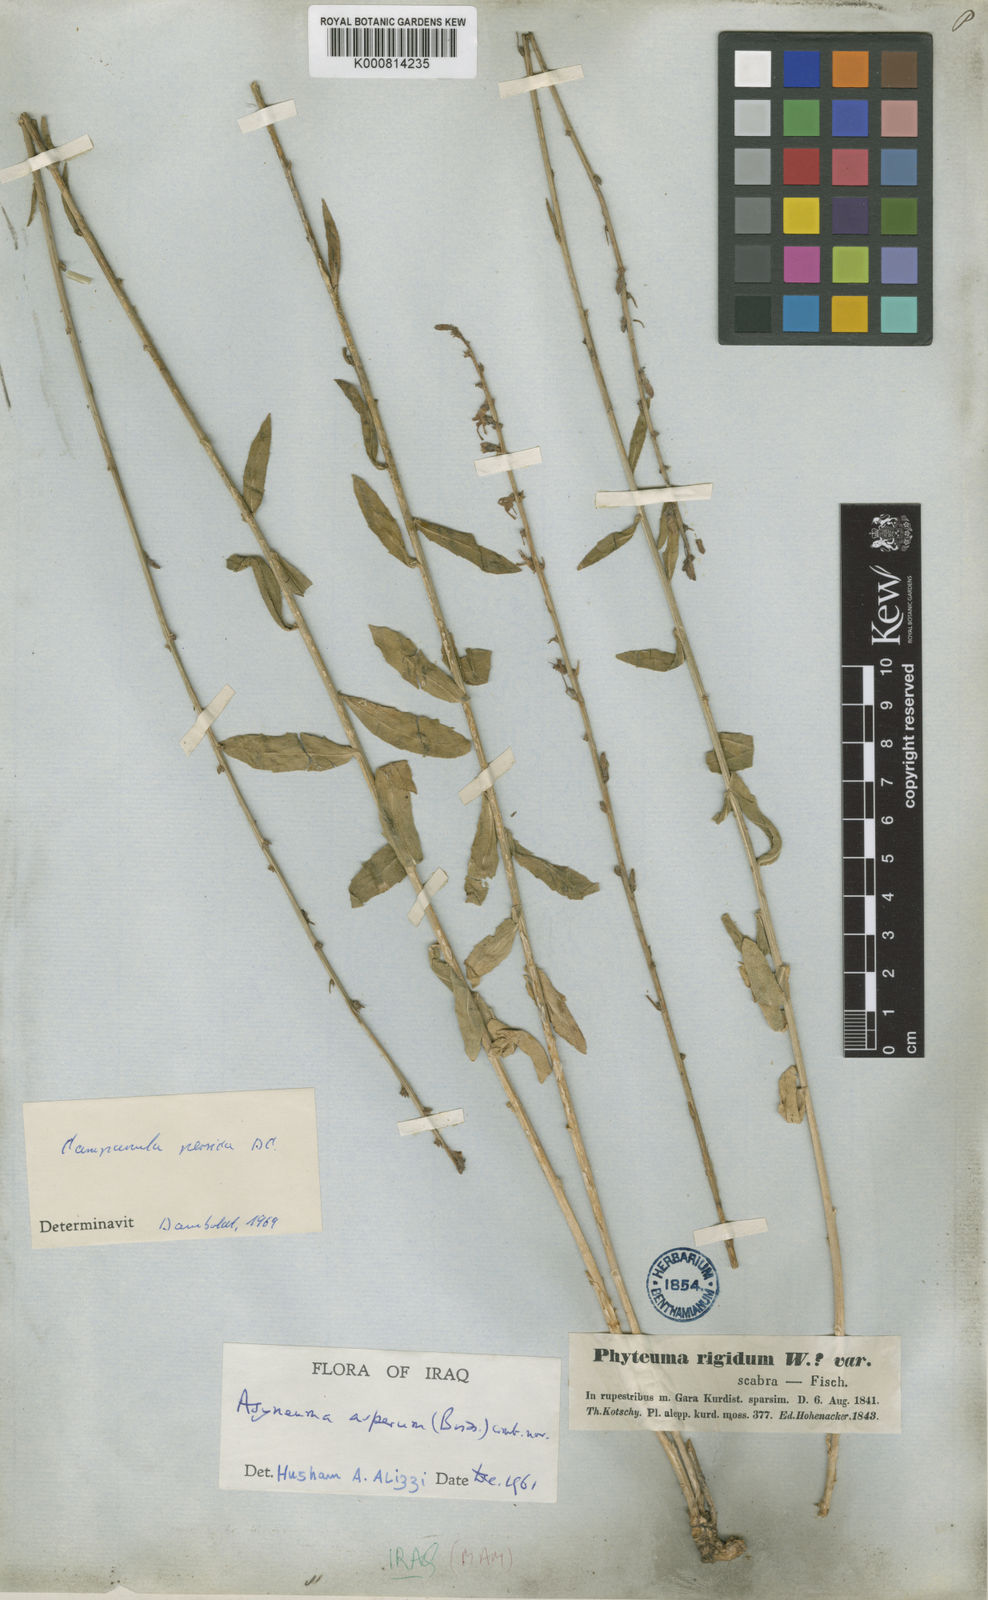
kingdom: Plantae
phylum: Tracheophyta
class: Magnoliopsida
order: Asterales
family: Campanulaceae
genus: Asyneuma
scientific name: Asyneuma persicum
